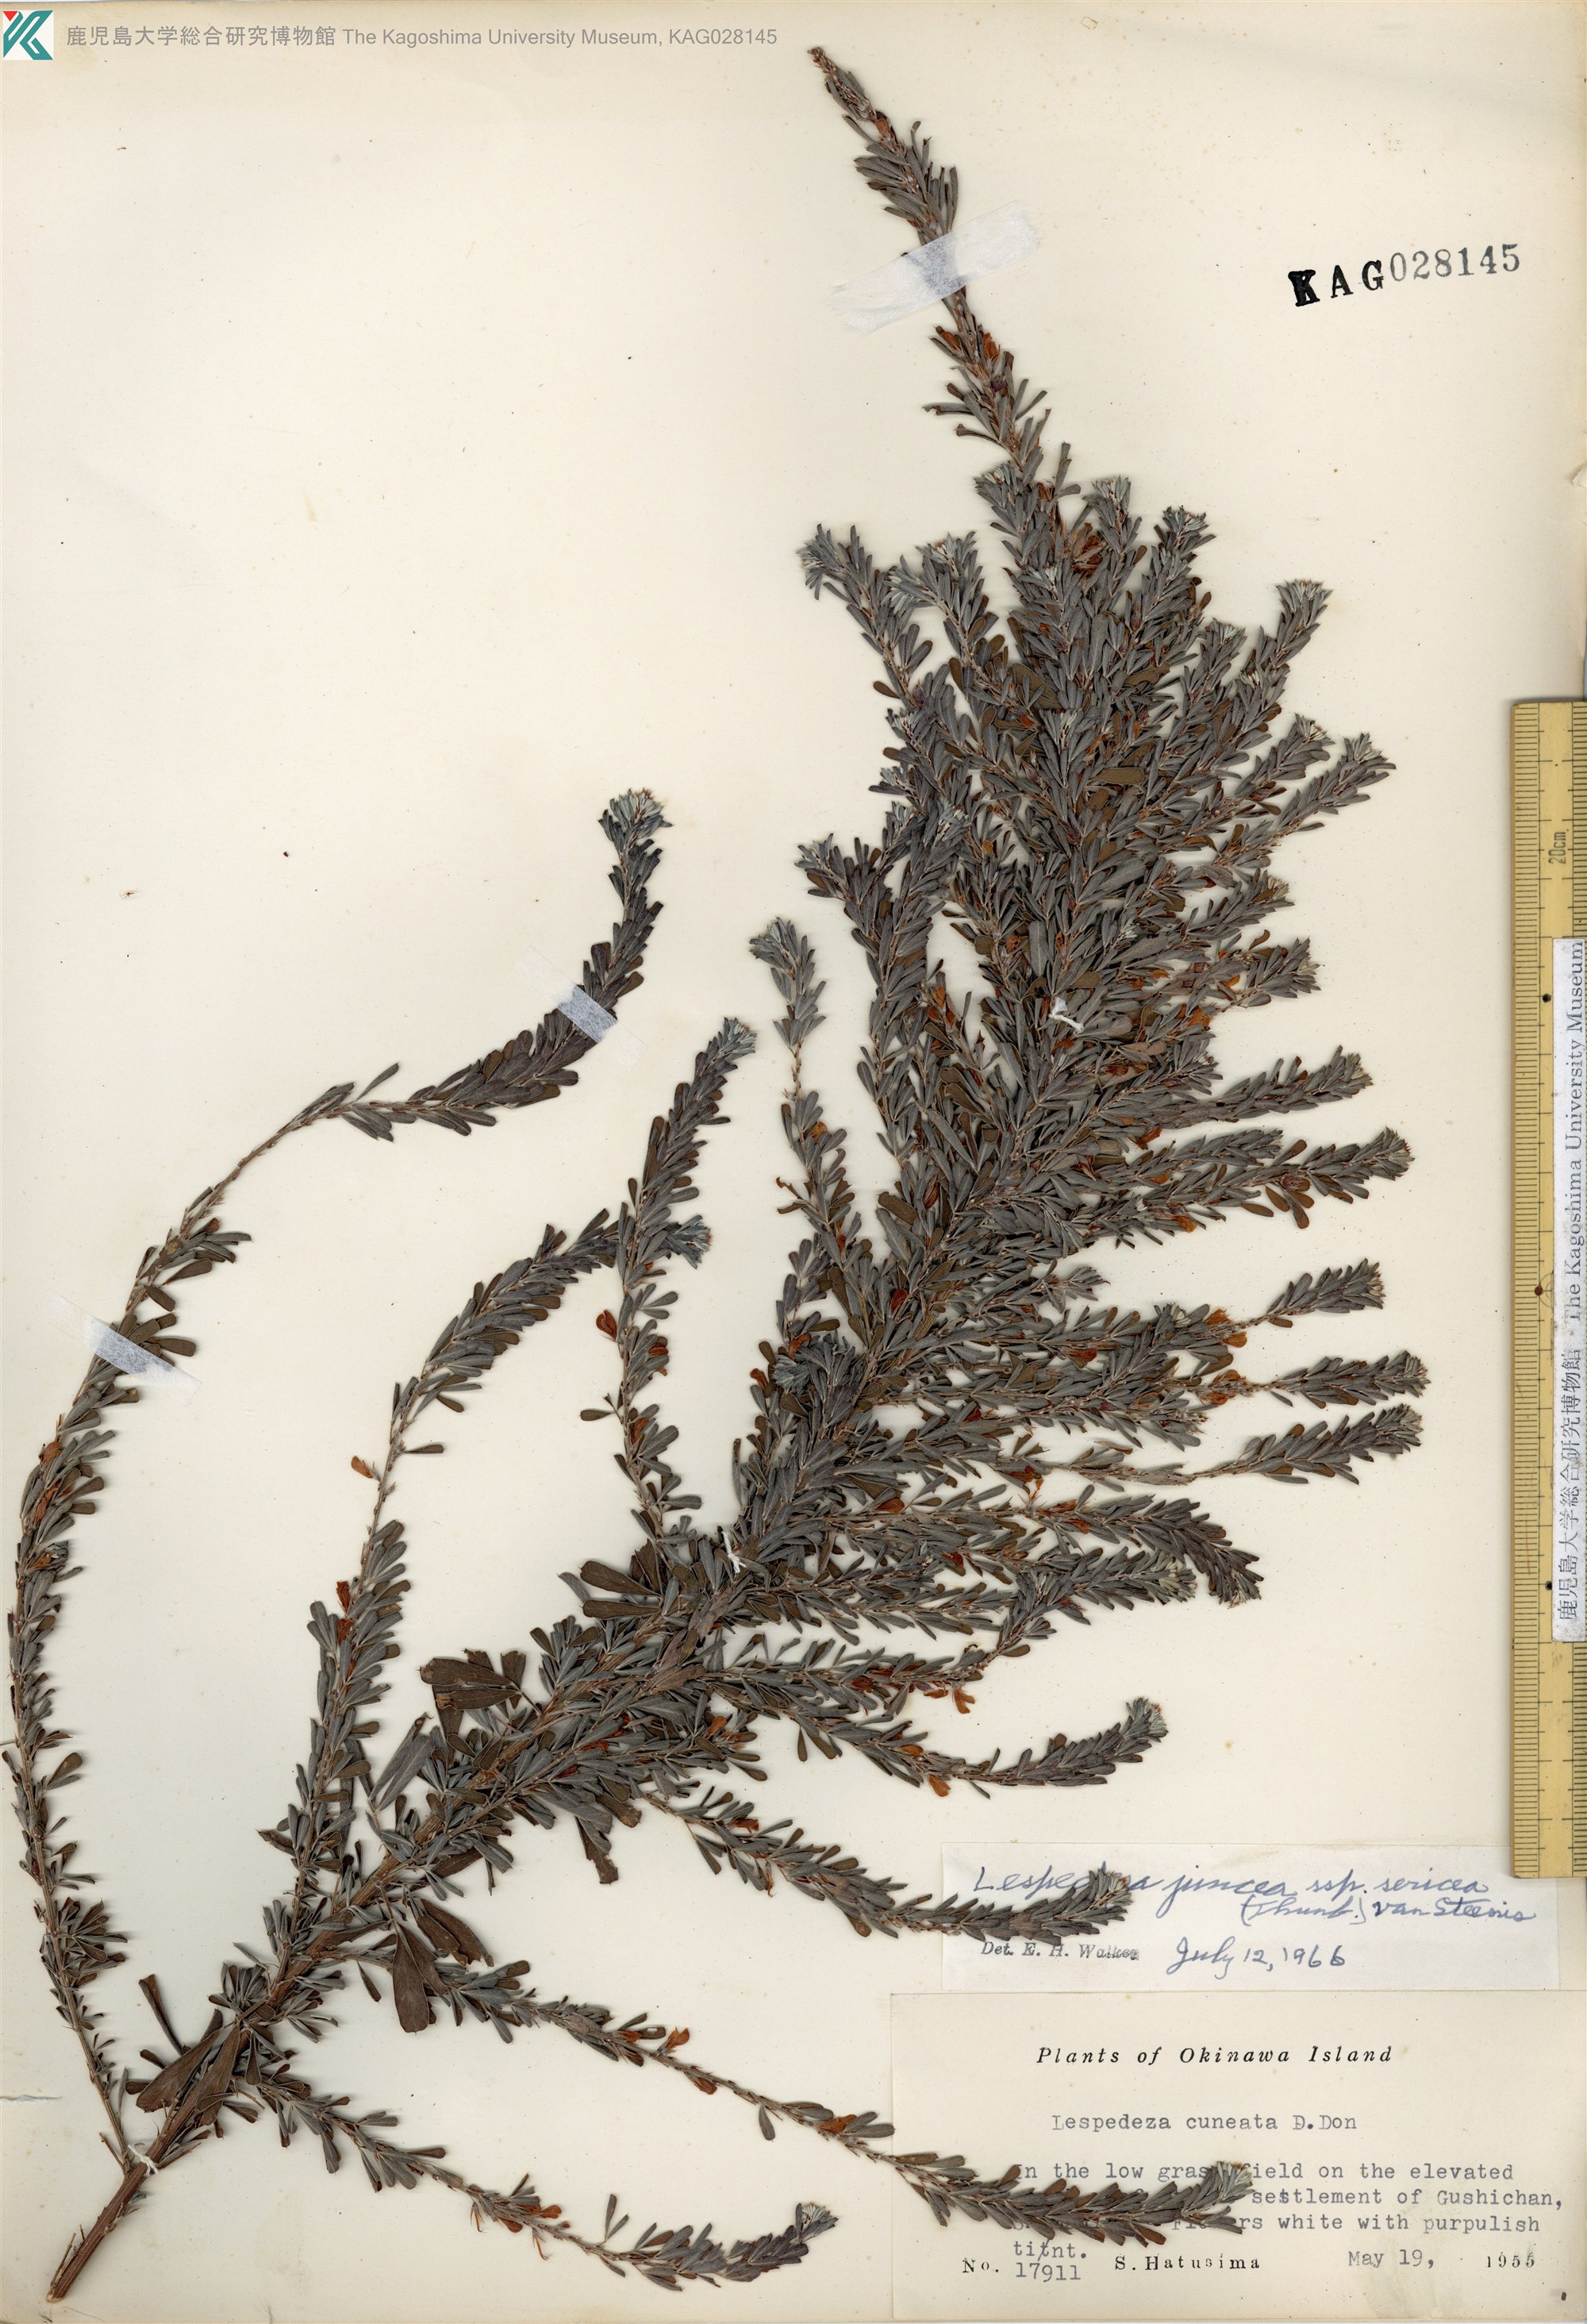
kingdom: Plantae
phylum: Tracheophyta
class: Magnoliopsida
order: Fabales
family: Fabaceae
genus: Lespedeza
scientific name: Lespedeza cuneata
